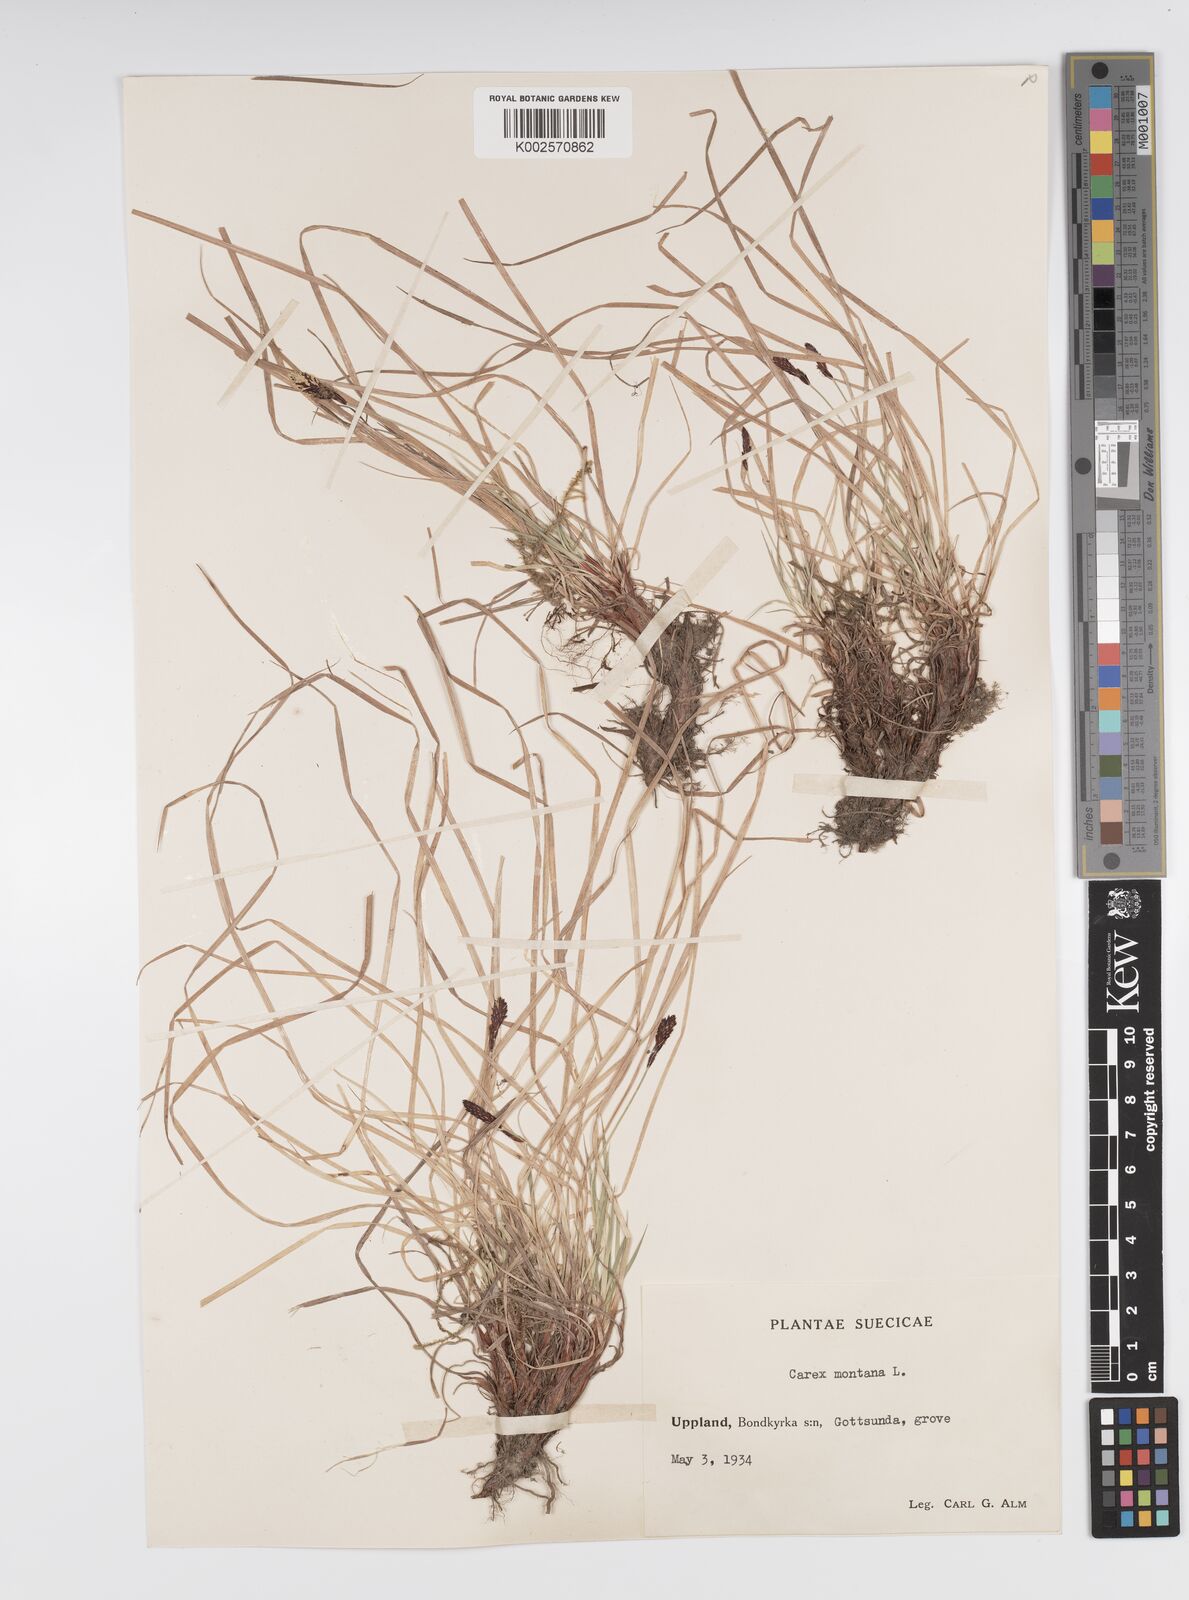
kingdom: Plantae
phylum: Tracheophyta
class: Liliopsida
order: Poales
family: Cyperaceae
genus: Carex
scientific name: Carex montana
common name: Soft-leaved sedge
